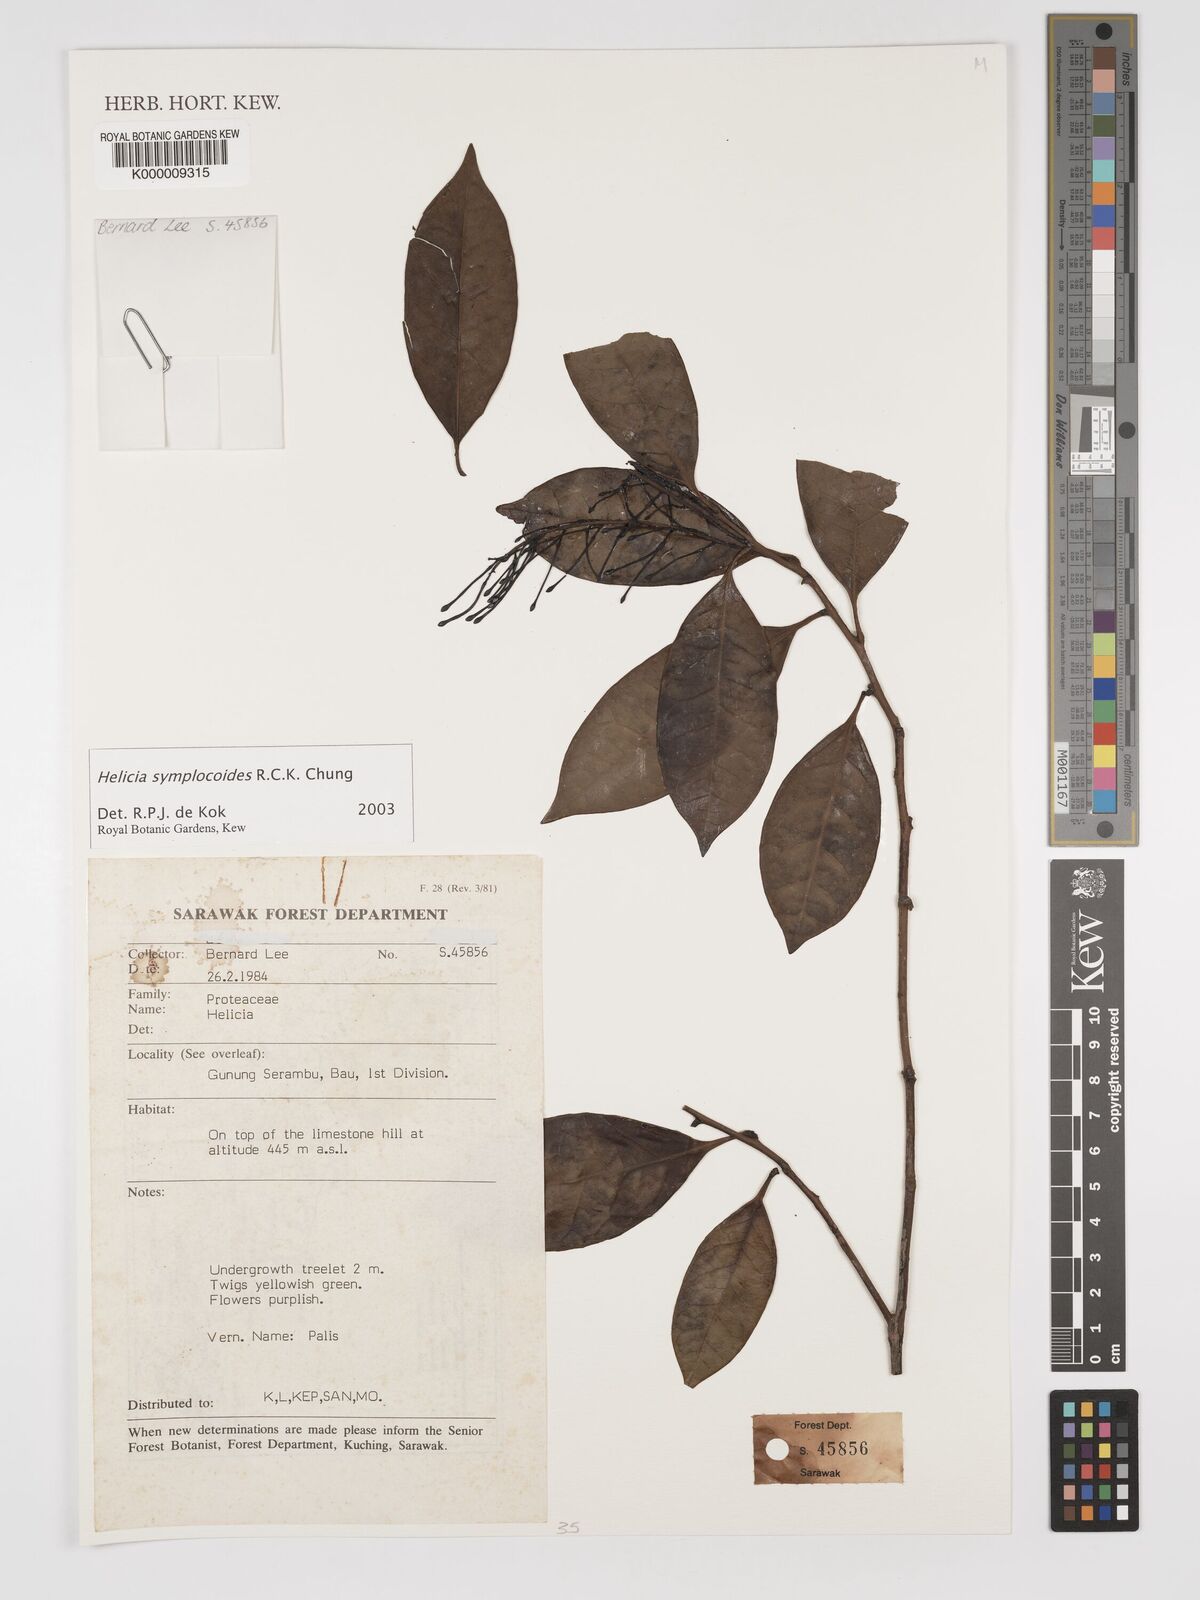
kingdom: Plantae
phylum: Tracheophyta
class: Magnoliopsida
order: Proteales
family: Proteaceae
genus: Helicia
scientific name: Helicia symplocoides
